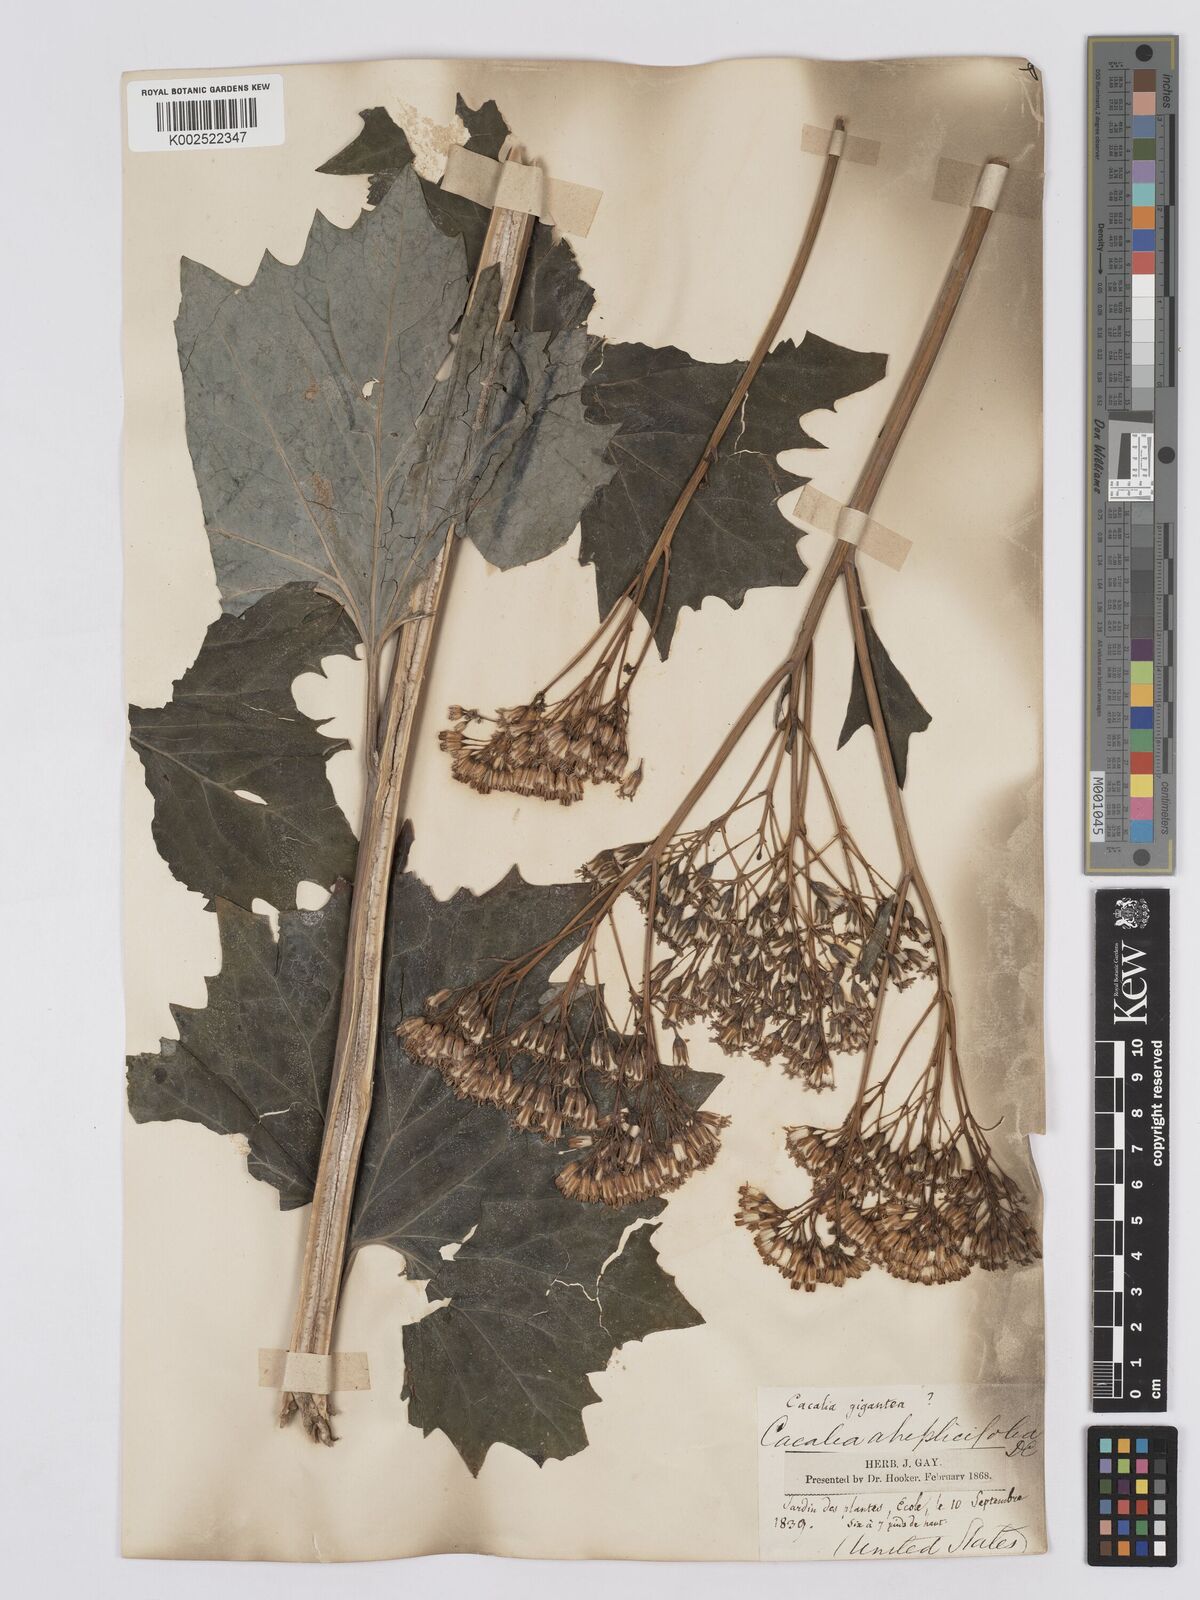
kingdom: Plantae
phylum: Tracheophyta
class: Magnoliopsida
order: Asterales
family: Asteraceae
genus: Arnoglossum
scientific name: Arnoglossum atriplicifolium
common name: Pale indian-plantain
